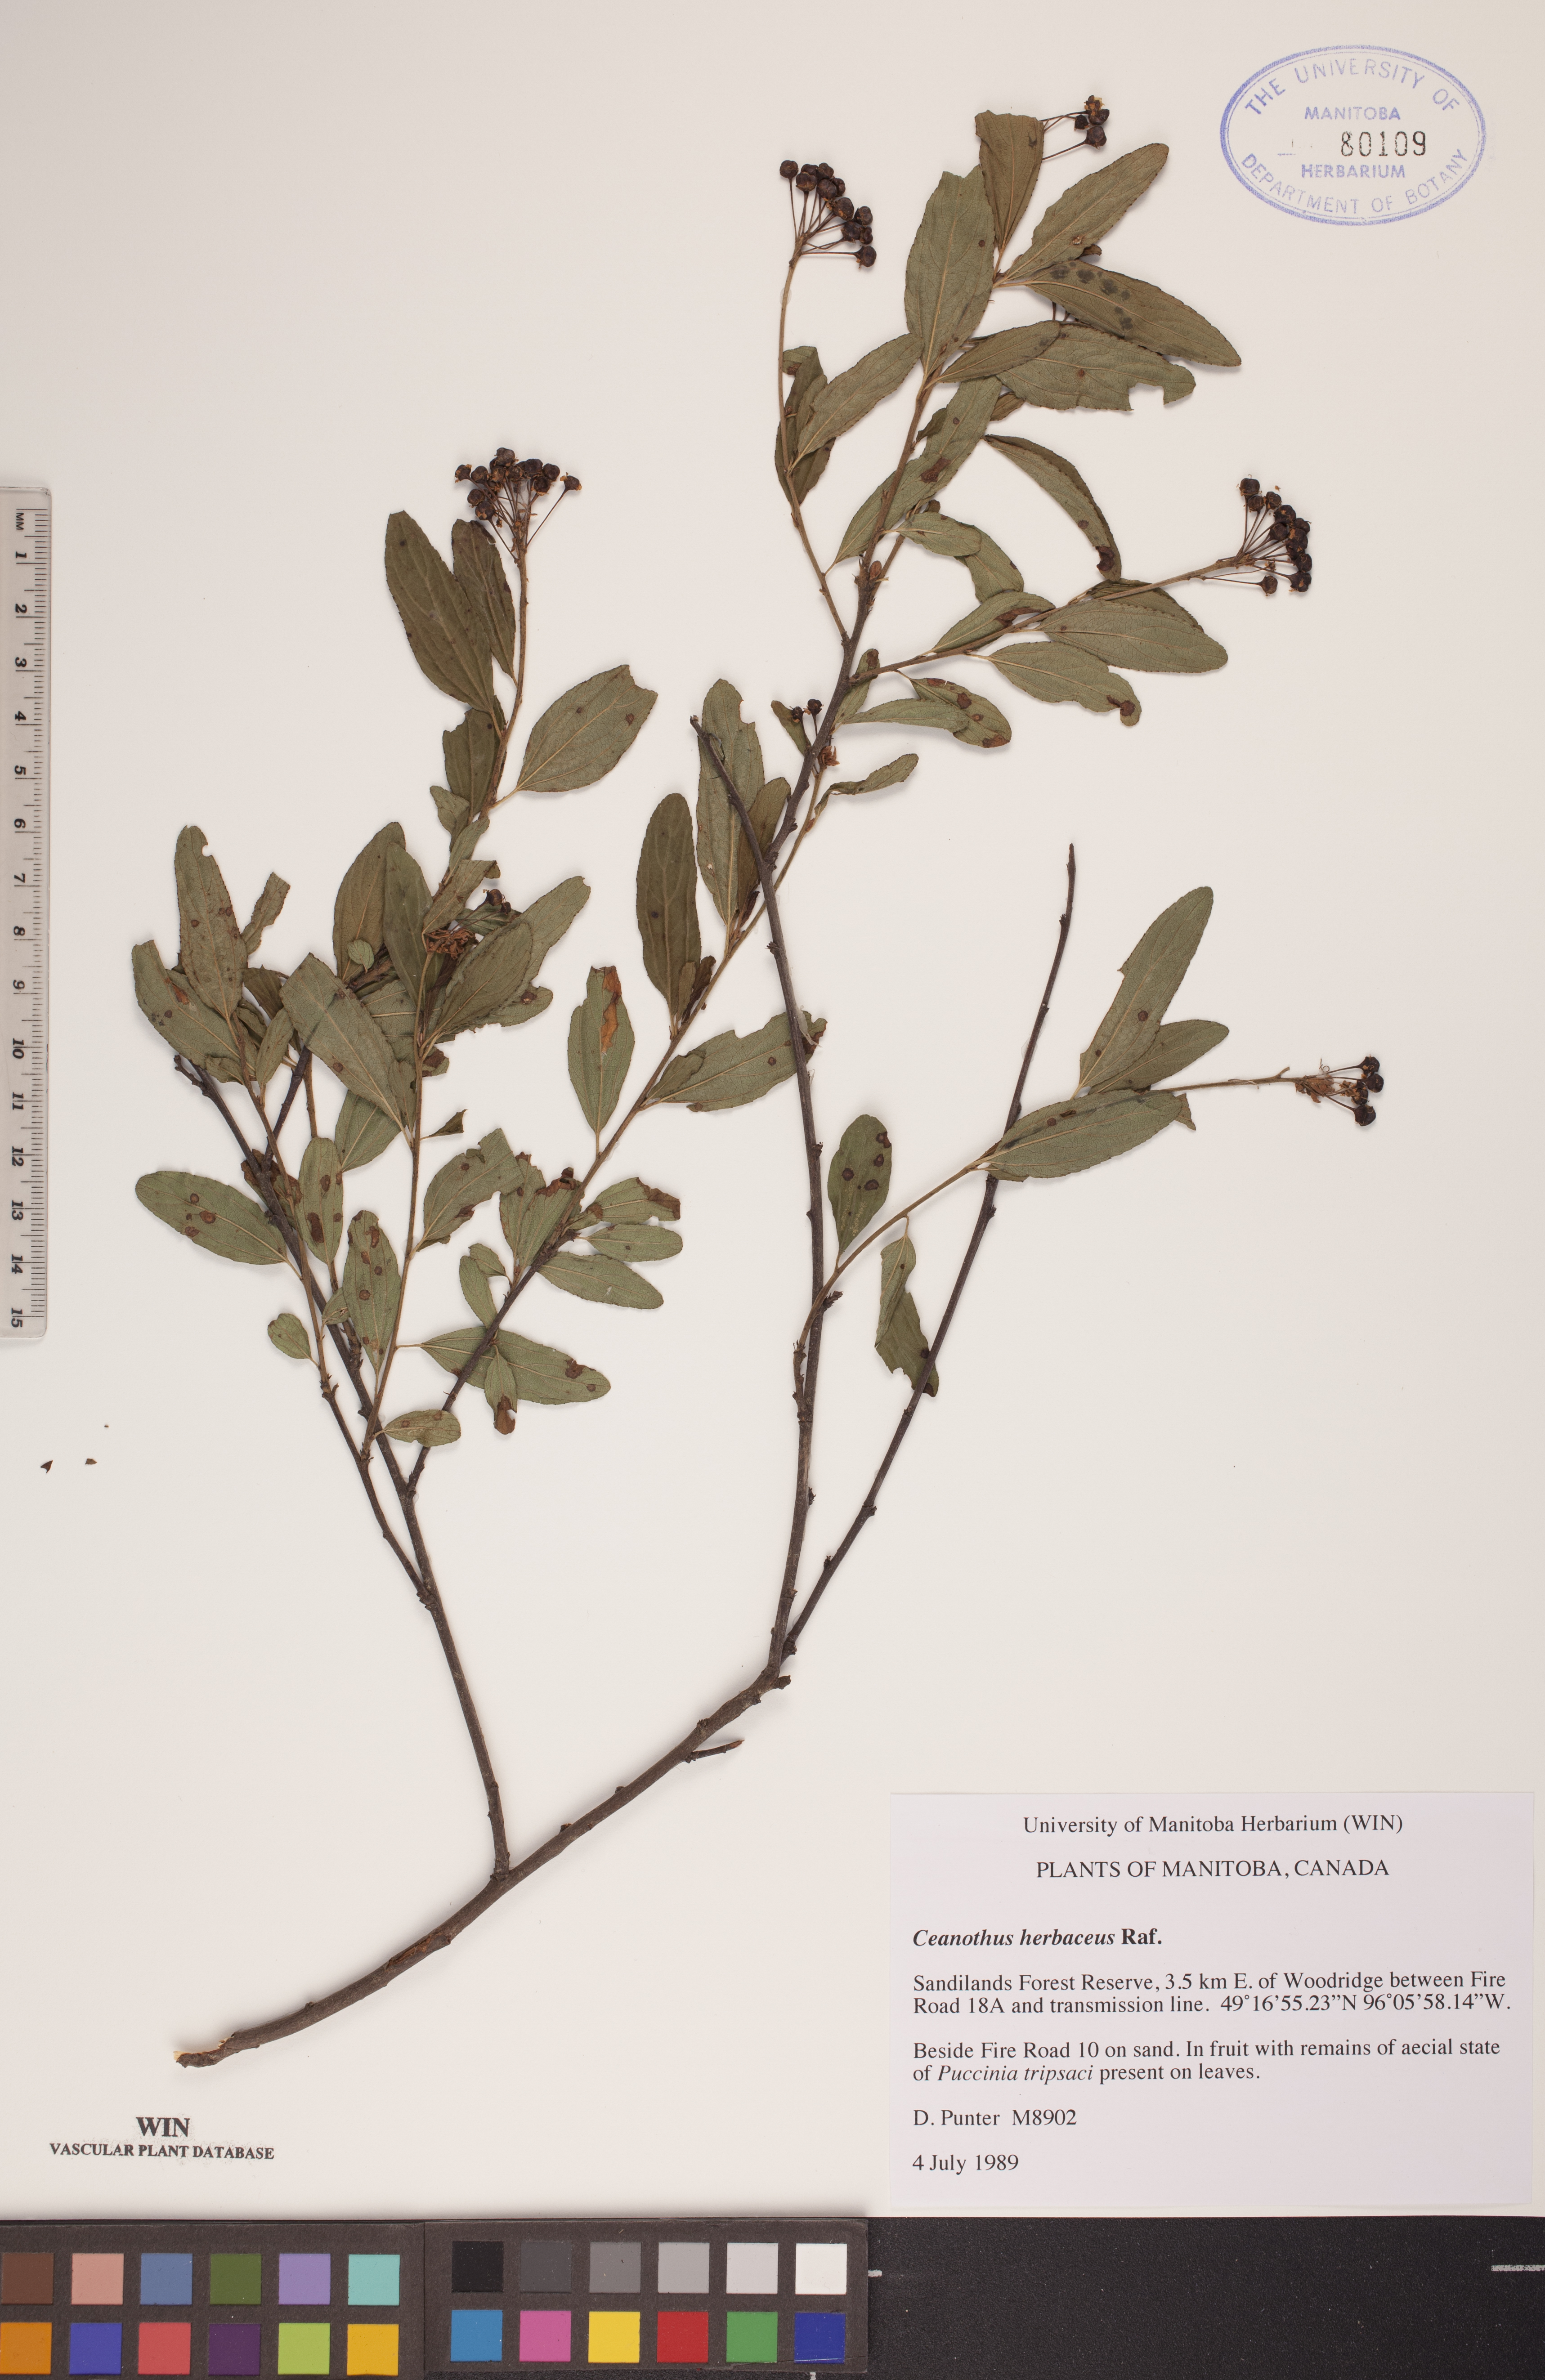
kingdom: Plantae
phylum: Tracheophyta
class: Magnoliopsida
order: Rosales
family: Rhamnaceae
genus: Ceanothus
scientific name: Ceanothus herbaceus
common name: Inland ceanothus
